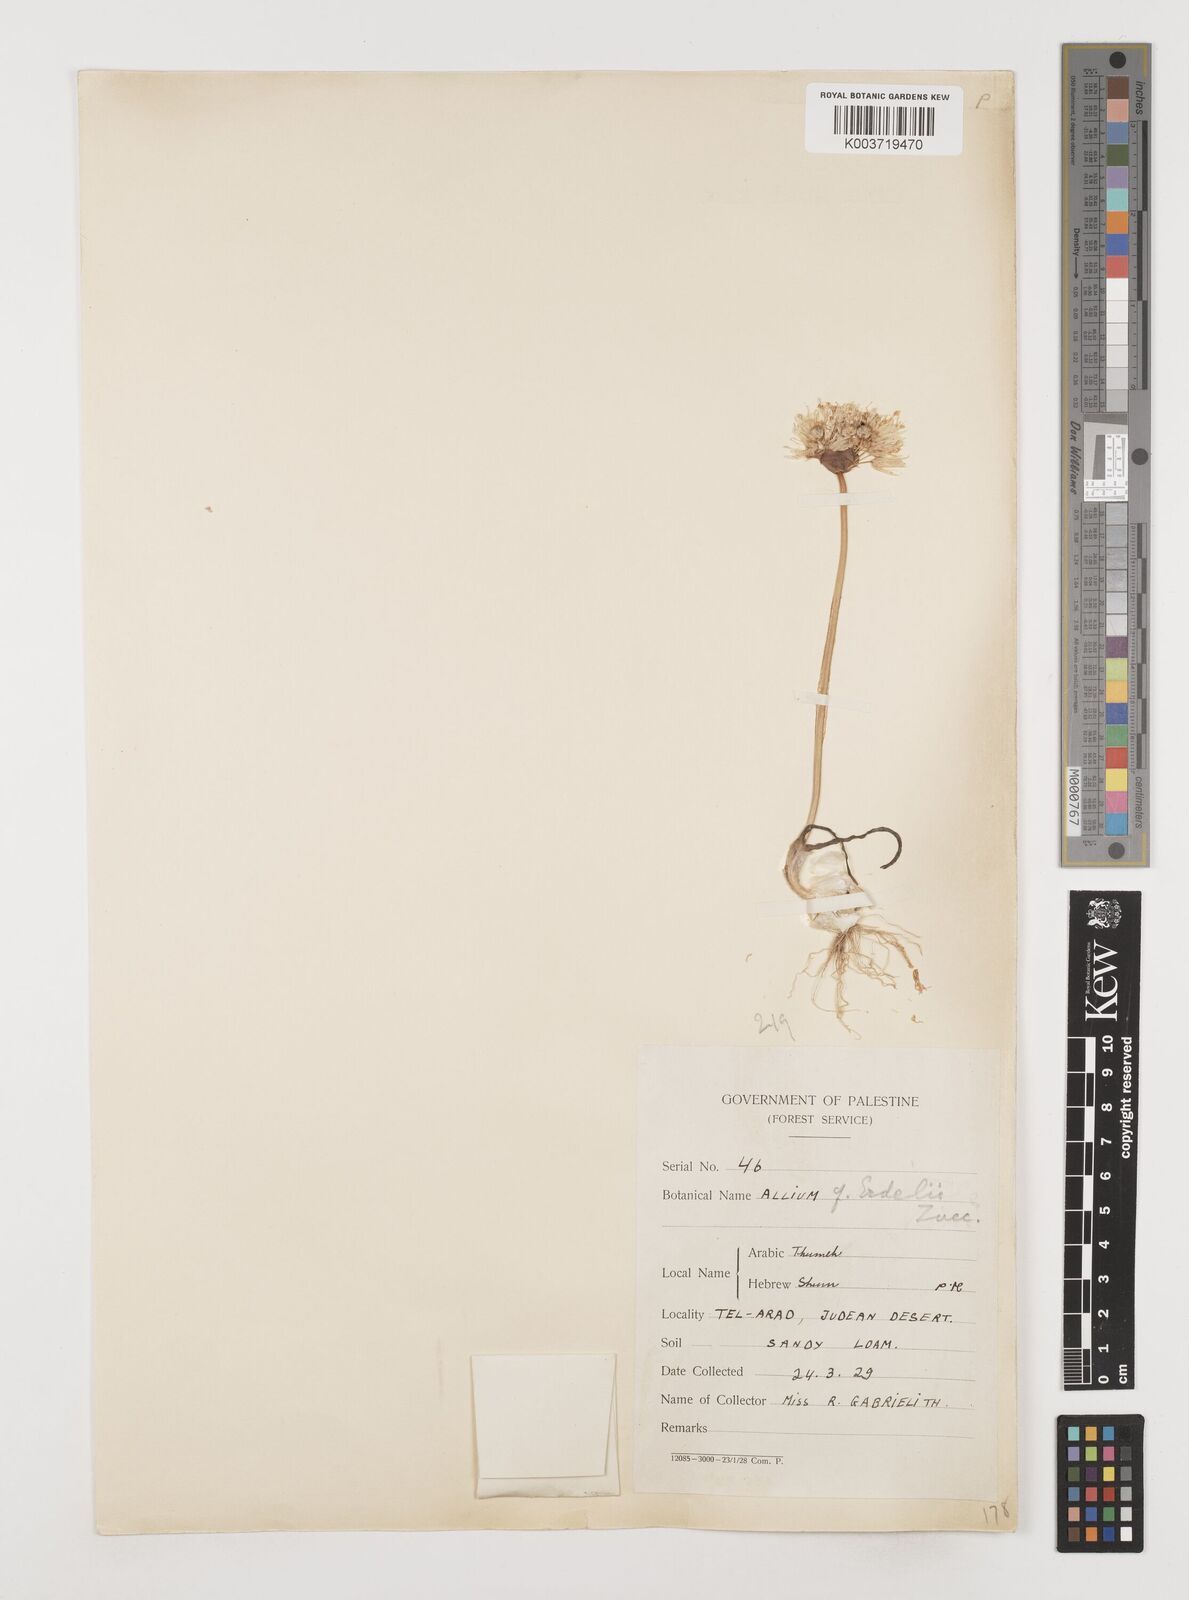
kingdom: Plantae
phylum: Tracheophyta
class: Liliopsida
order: Asparagales
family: Amaryllidaceae
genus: Allium
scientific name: Allium erdelii
